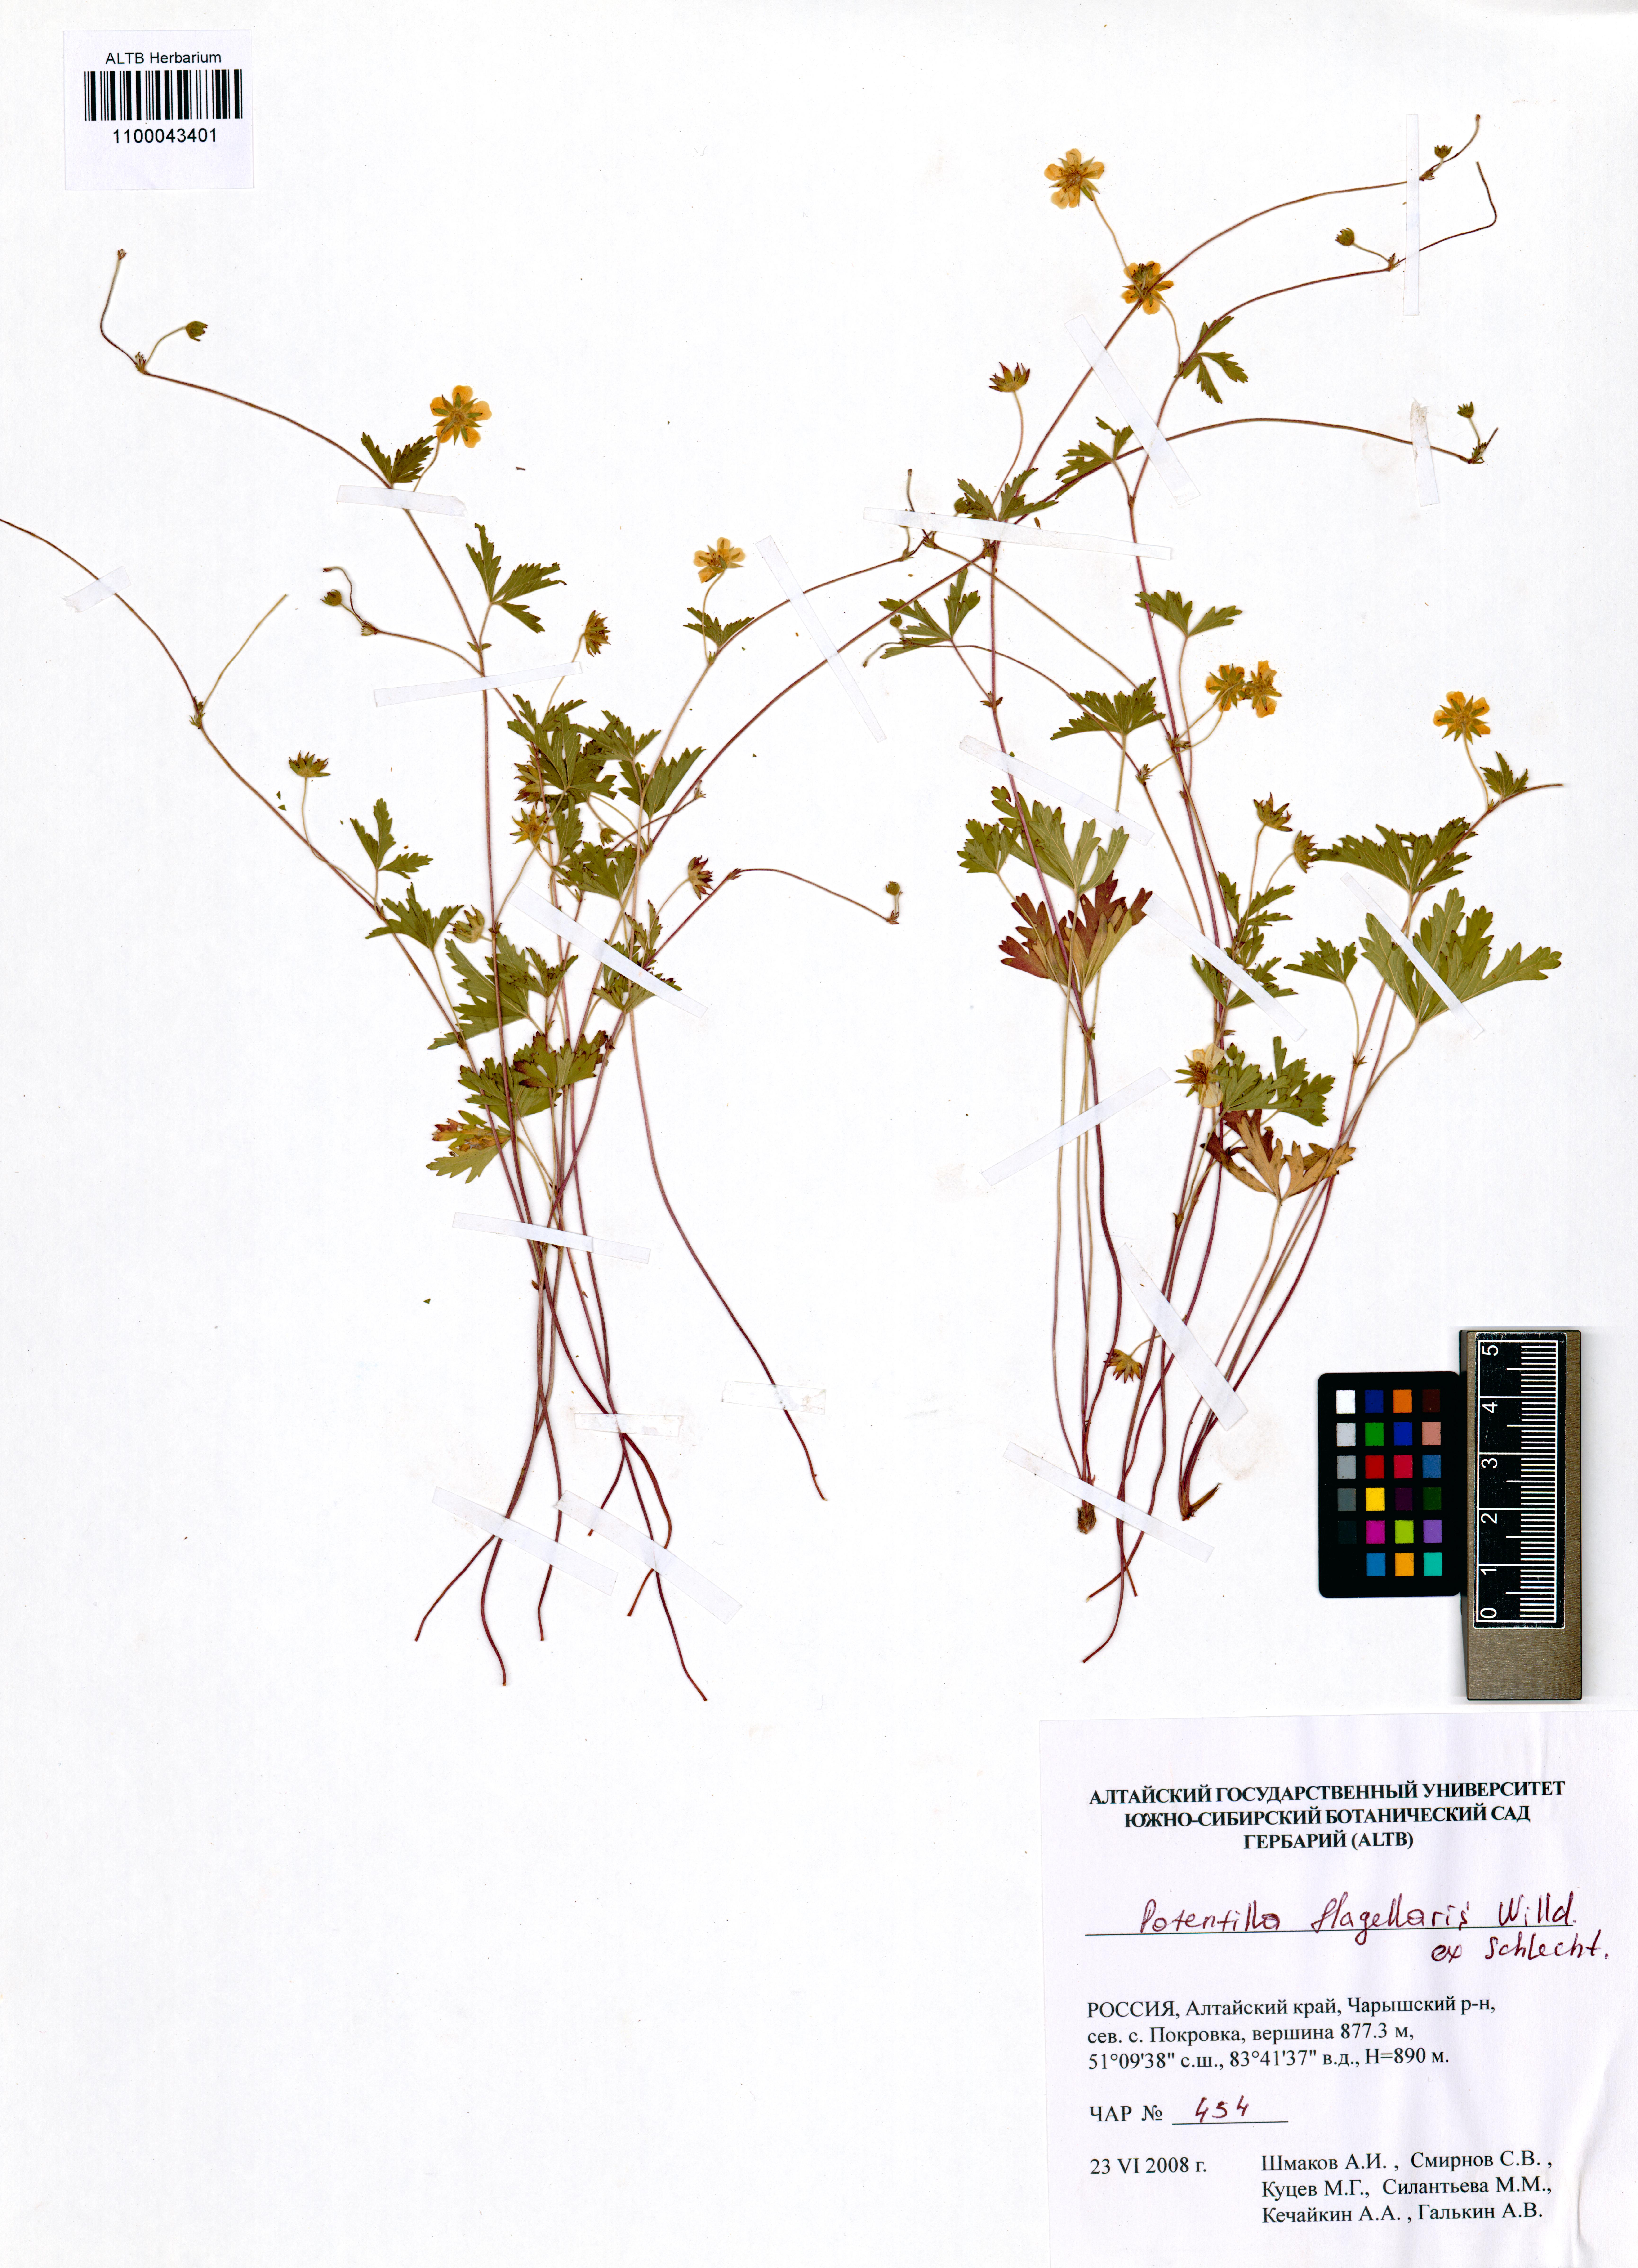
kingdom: Plantae
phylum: Tracheophyta
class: Magnoliopsida
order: Rosales
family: Rosaceae
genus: Potentilla
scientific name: Potentilla flagellaris
